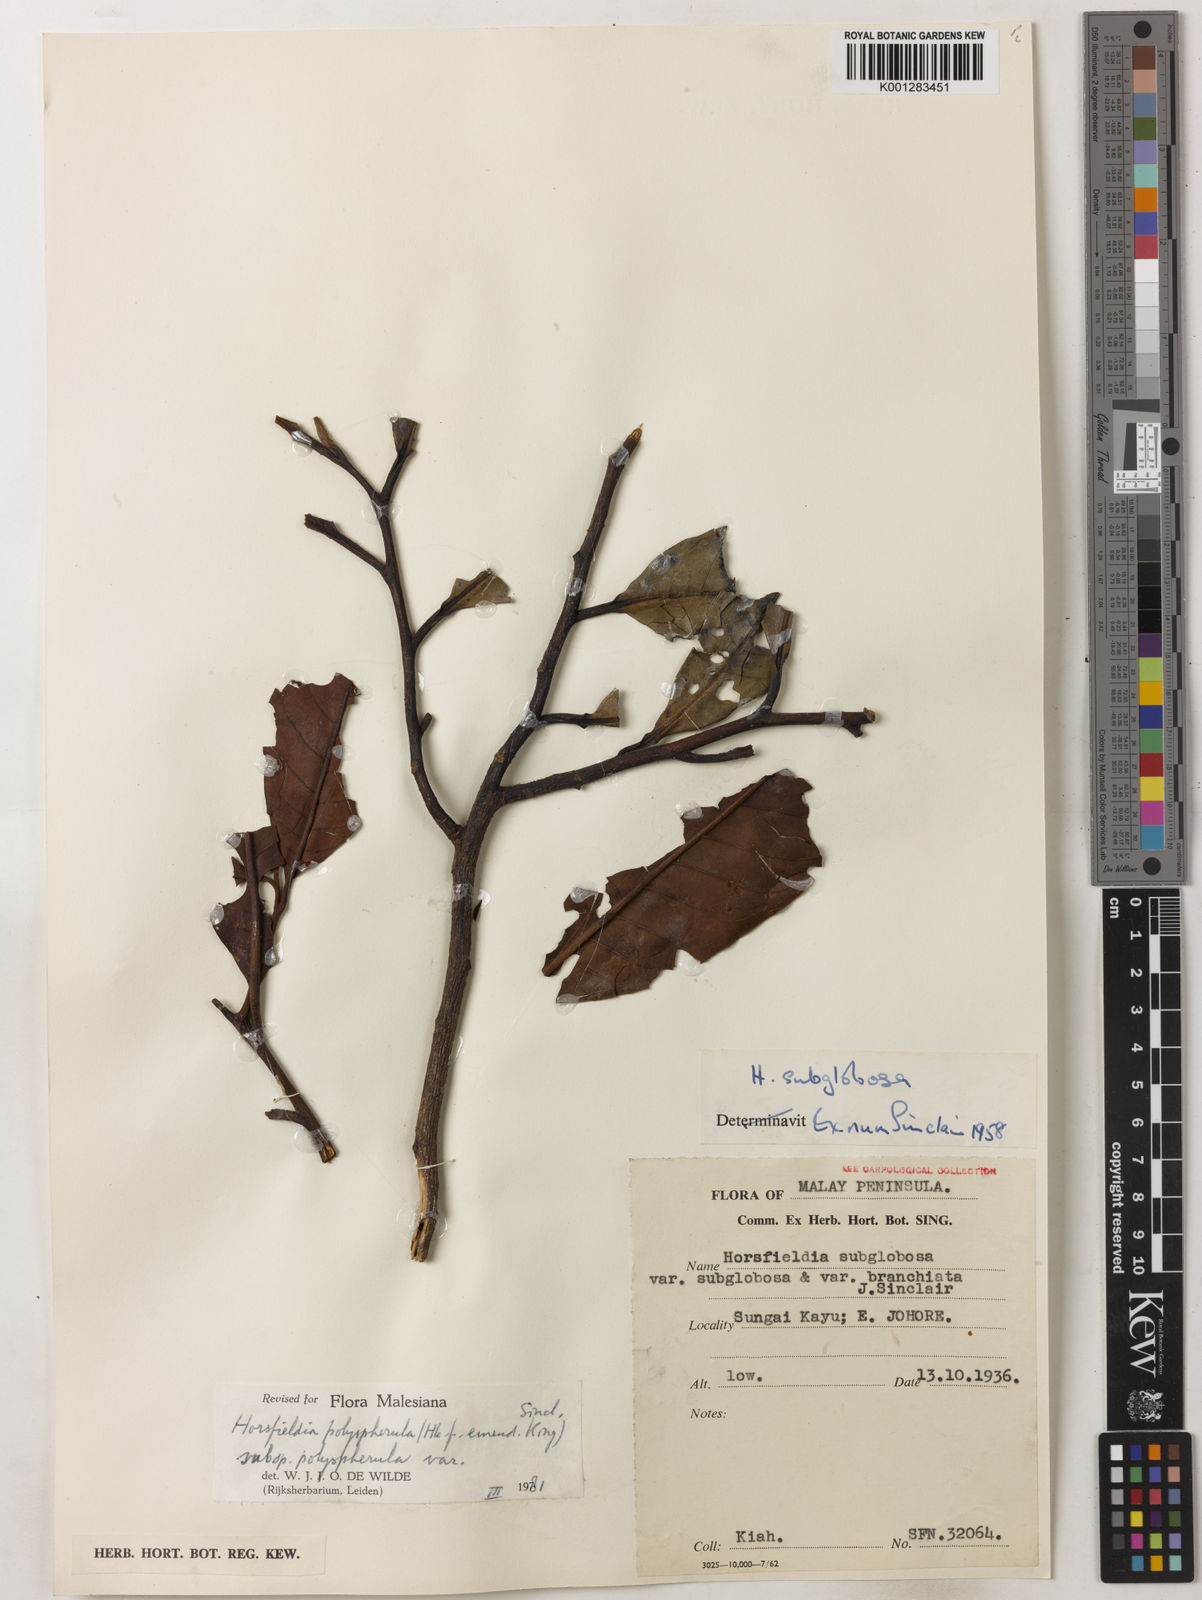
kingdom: Plantae
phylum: Tracheophyta
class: Magnoliopsida
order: Magnoliales
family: Myristicaceae
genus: Horsfieldia
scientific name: Horsfieldia polyspherula
